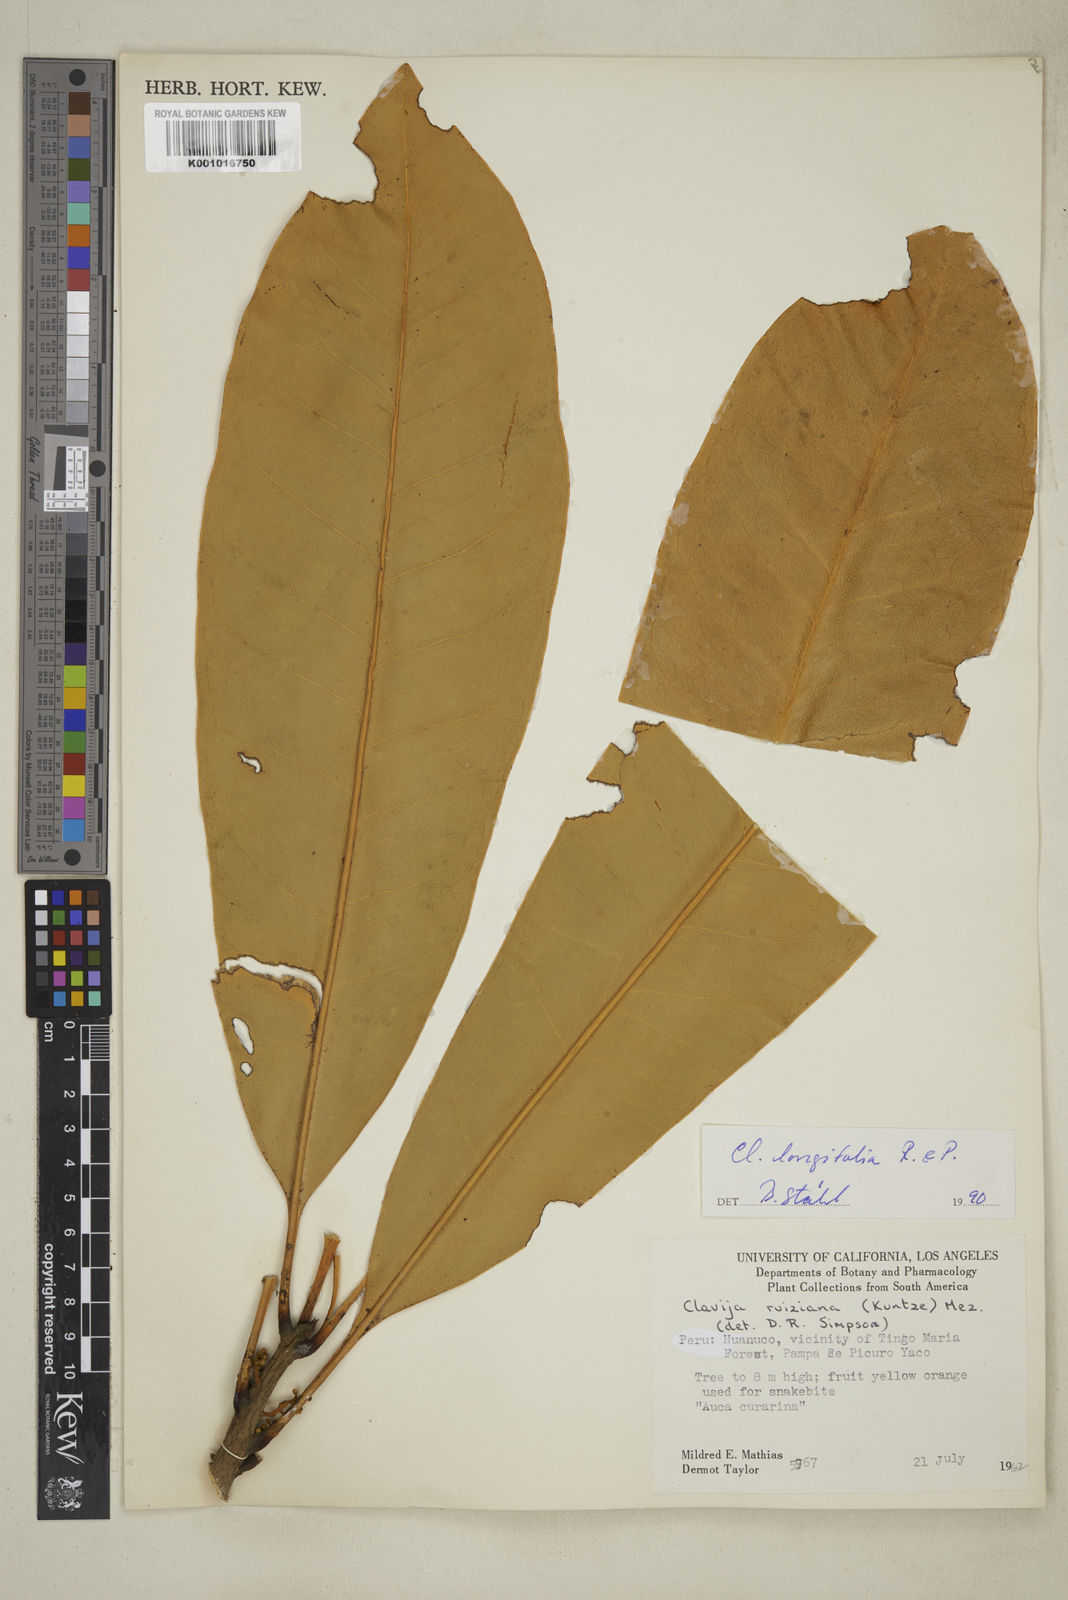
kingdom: Plantae
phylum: Tracheophyta
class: Magnoliopsida
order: Ericales
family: Primulaceae
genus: Clavija
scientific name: Clavija longifolia
